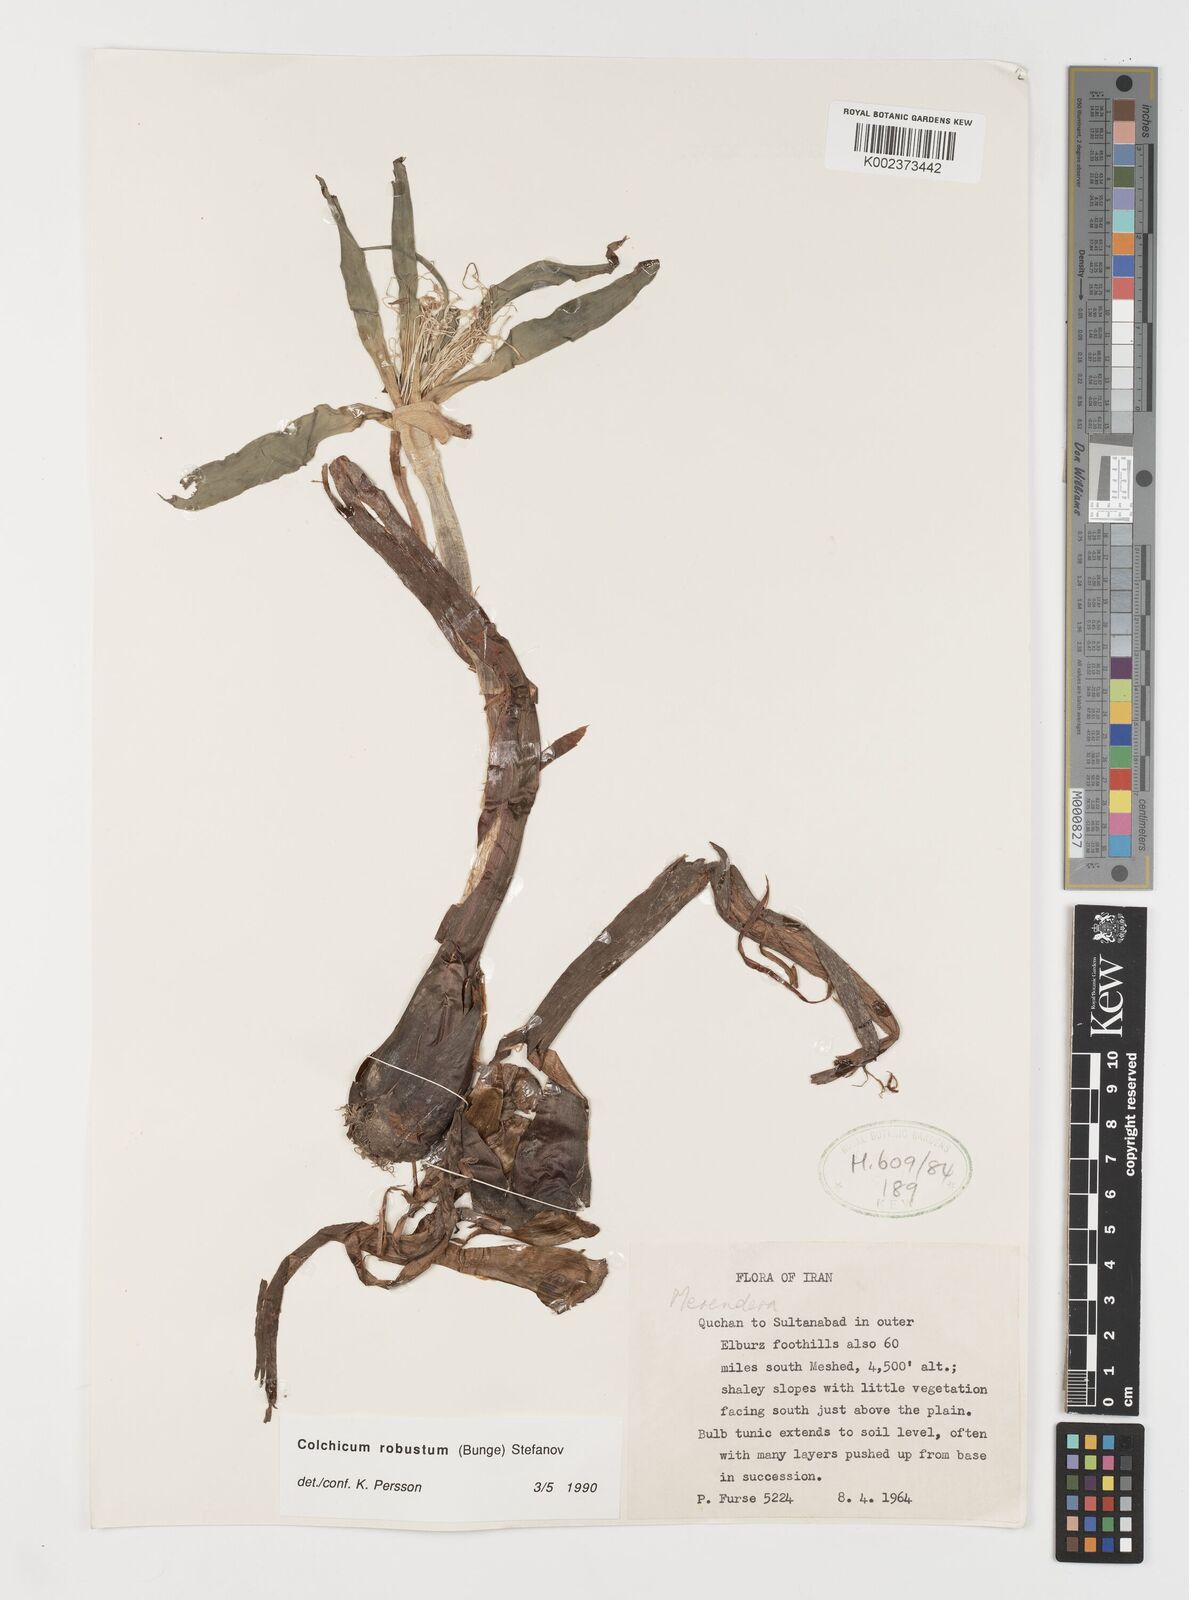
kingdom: Plantae
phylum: Tracheophyta
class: Liliopsida
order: Liliales
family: Colchicaceae
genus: Colchicum
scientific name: Colchicum robustum
